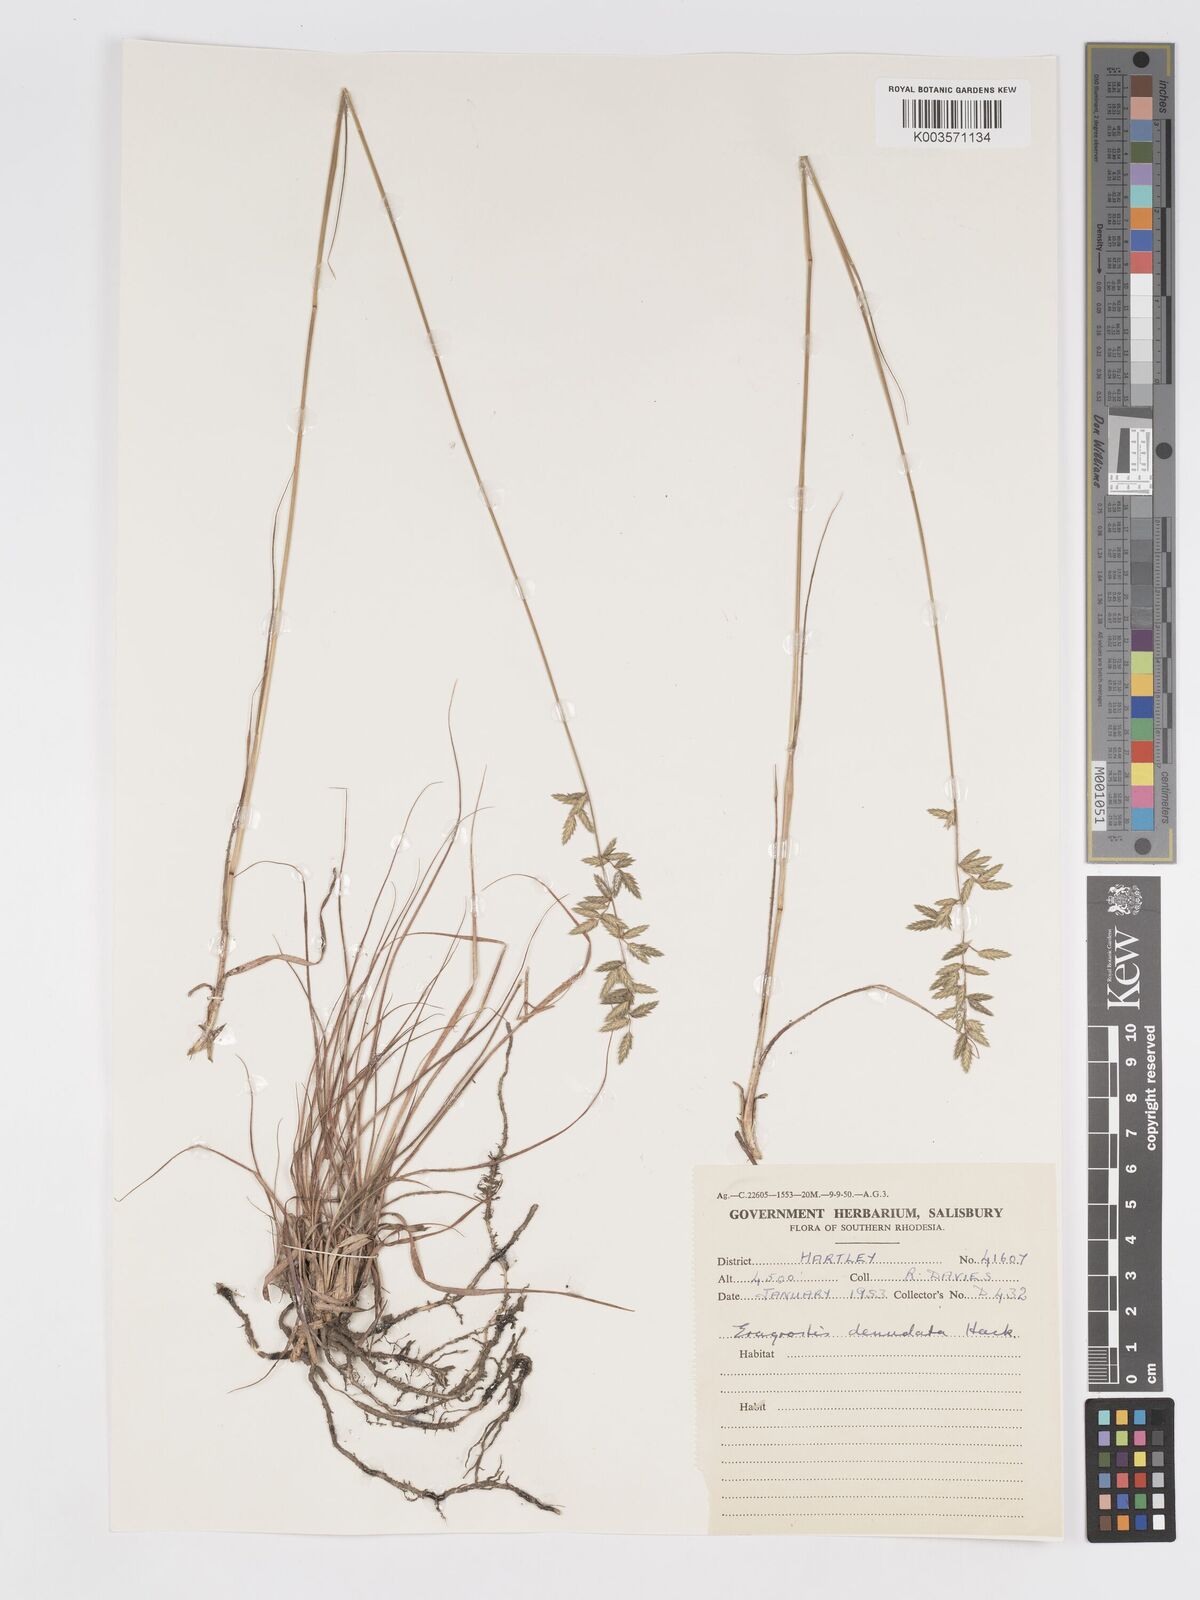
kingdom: Plantae
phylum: Tracheophyta
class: Liliopsida
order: Poales
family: Poaceae
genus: Eragrostis
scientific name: Eragrostis nindensis
